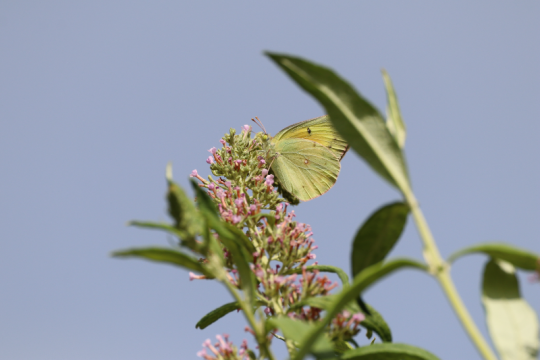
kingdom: Animalia
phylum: Arthropoda
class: Insecta
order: Lepidoptera
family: Pieridae
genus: Colias
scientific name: Colias eurytheme
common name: Orange Sulphur
